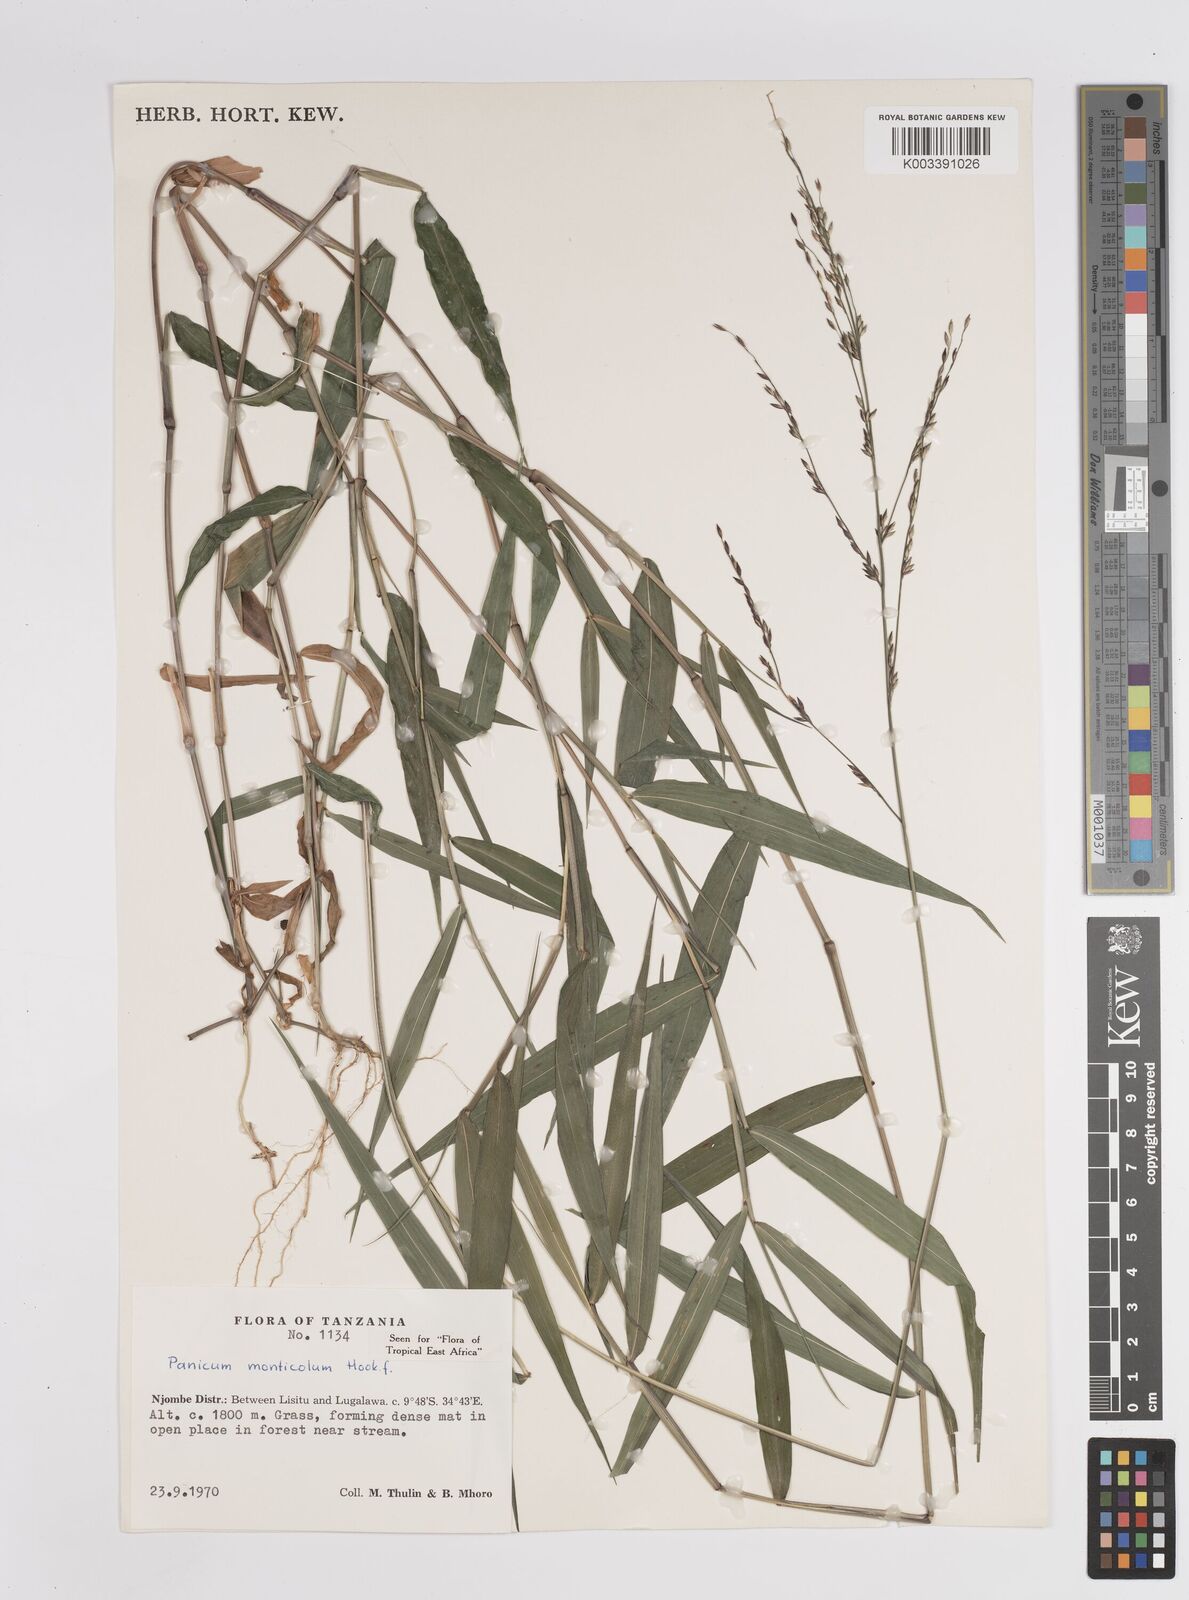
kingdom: Plantae
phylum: Tracheophyta
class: Liliopsida
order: Poales
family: Poaceae
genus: Panicum
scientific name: Panicum monticola
